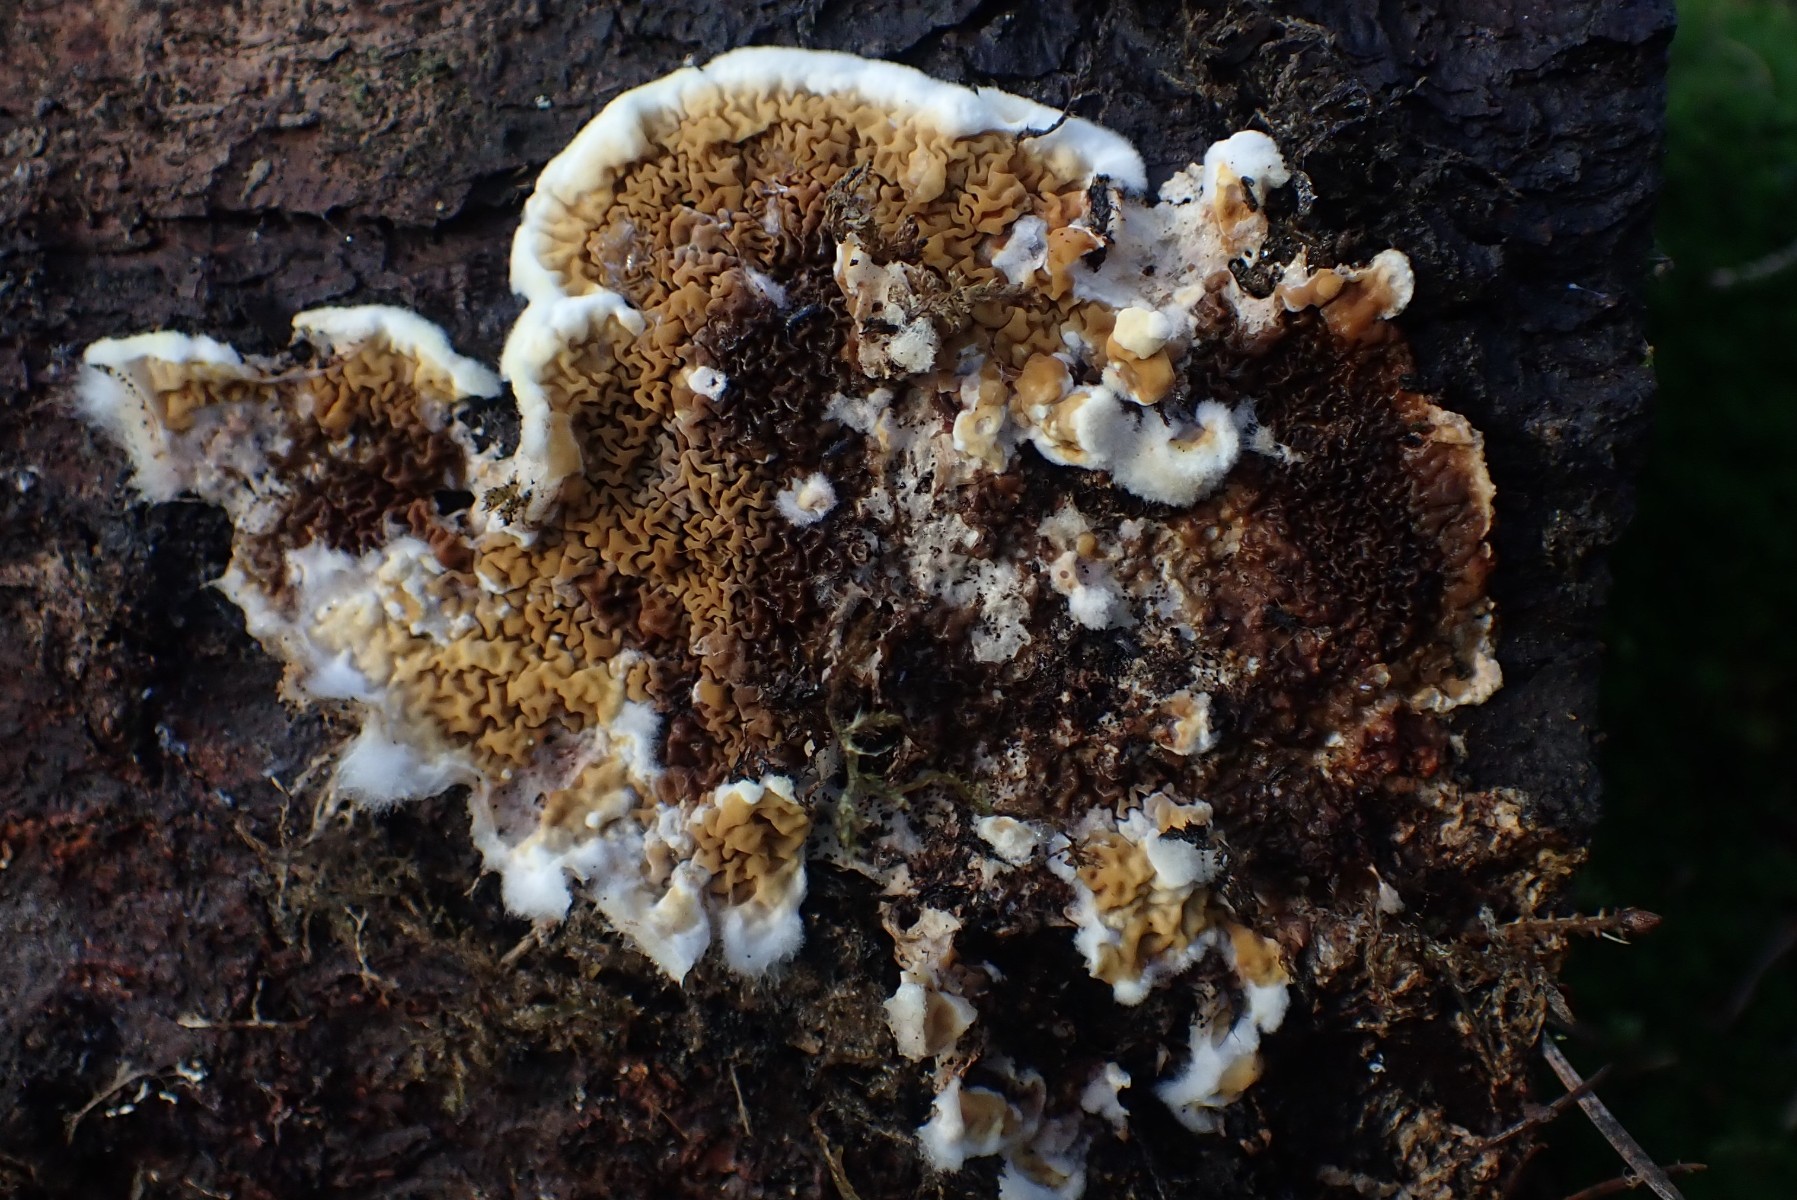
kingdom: Fungi
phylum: Basidiomycota
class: Agaricomycetes
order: Boletales
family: Serpulaceae
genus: Serpula
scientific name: Serpula himantioides
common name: tyndkødet hussvamp
